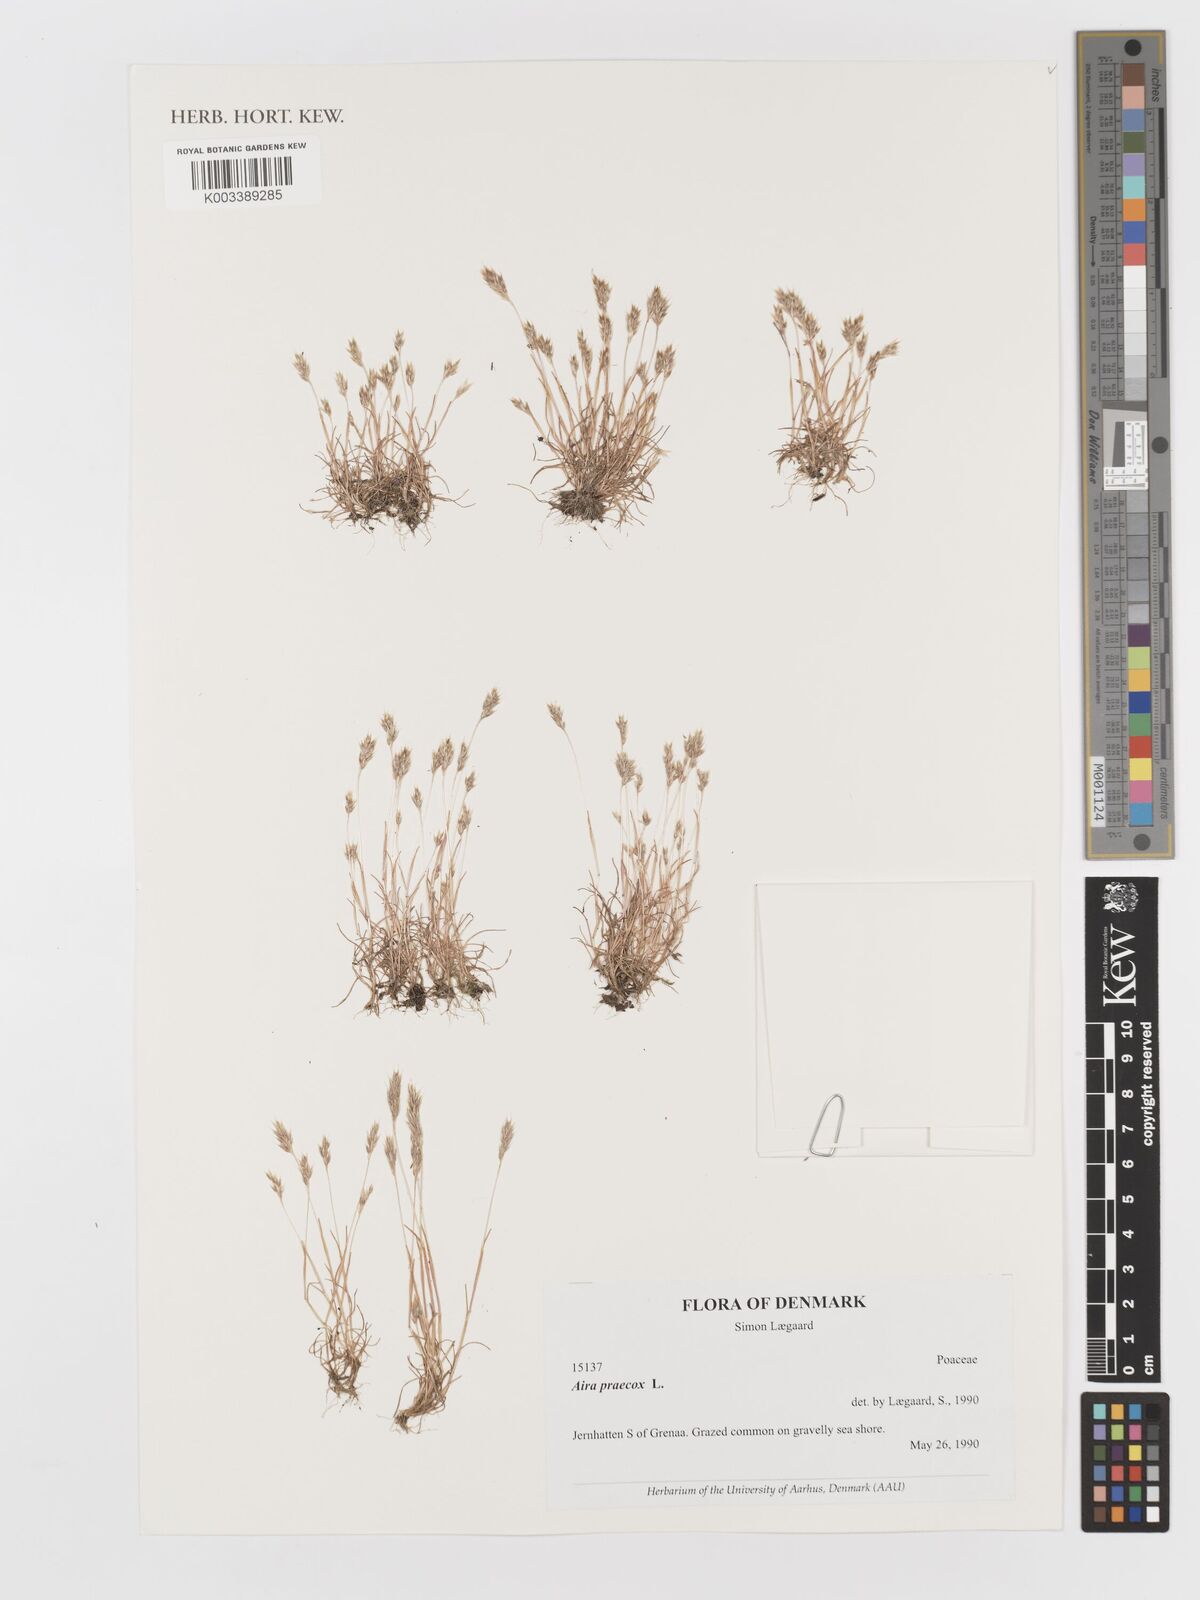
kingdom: Plantae
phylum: Tracheophyta
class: Liliopsida
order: Poales
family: Poaceae
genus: Aira
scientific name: Aira praecox
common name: Early hair-grass
